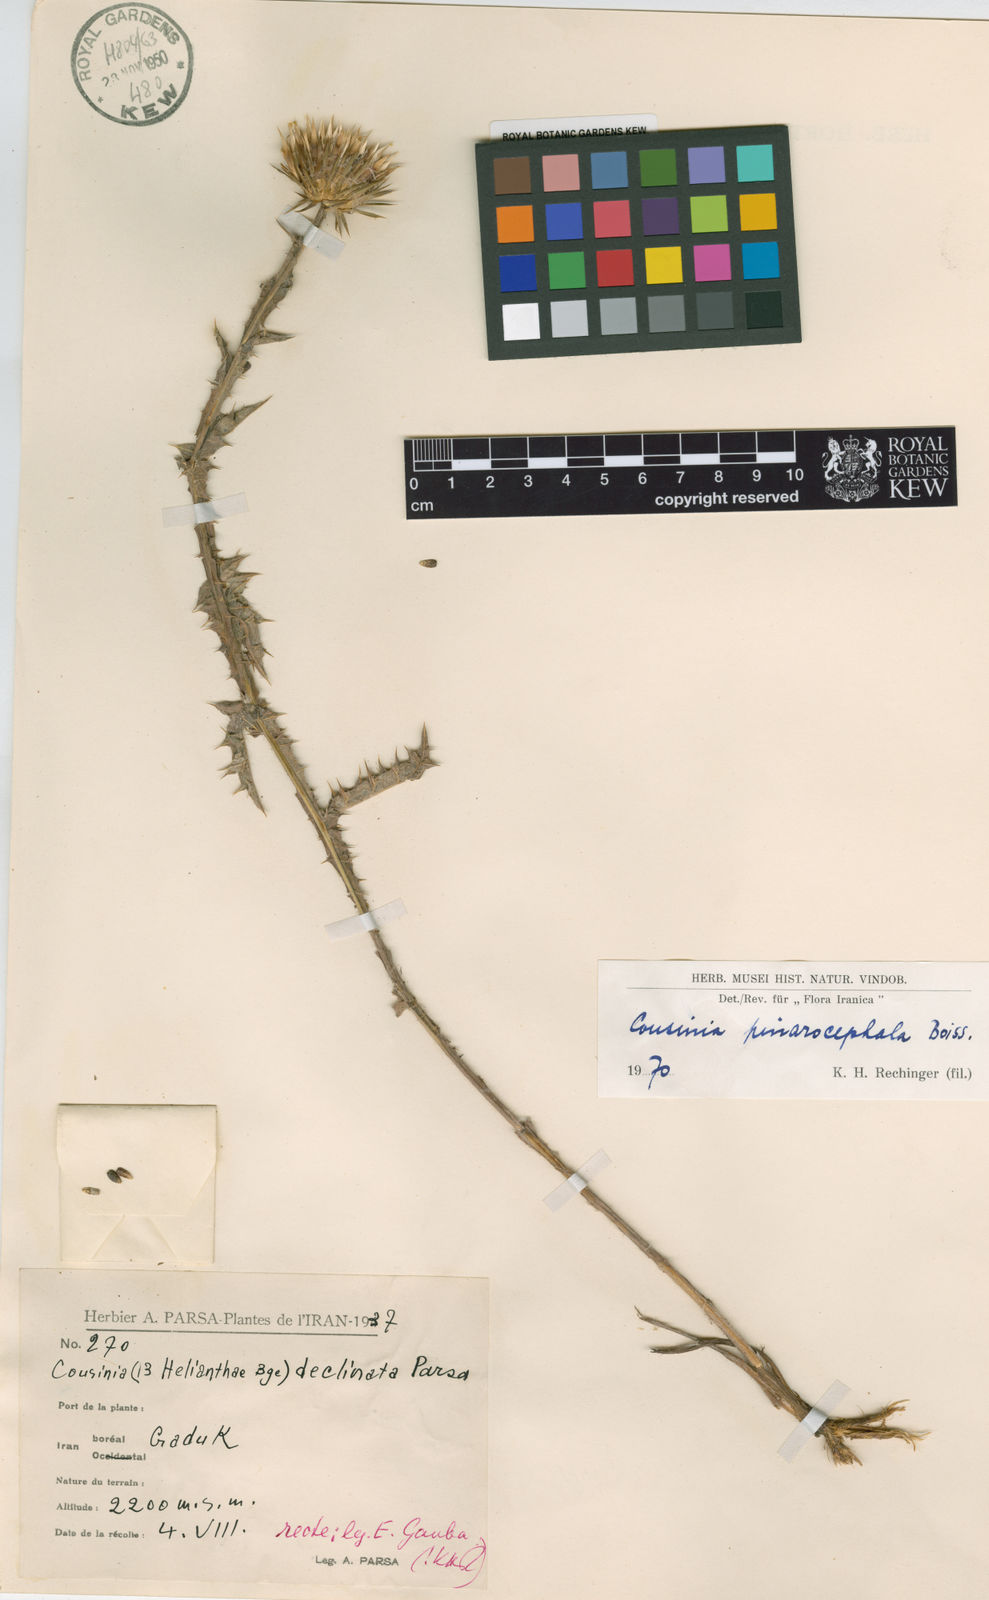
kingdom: Plantae
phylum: Tracheophyta
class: Magnoliopsida
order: Asterales
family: Asteraceae
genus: Cousinia
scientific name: Cousinia pinarocephala
